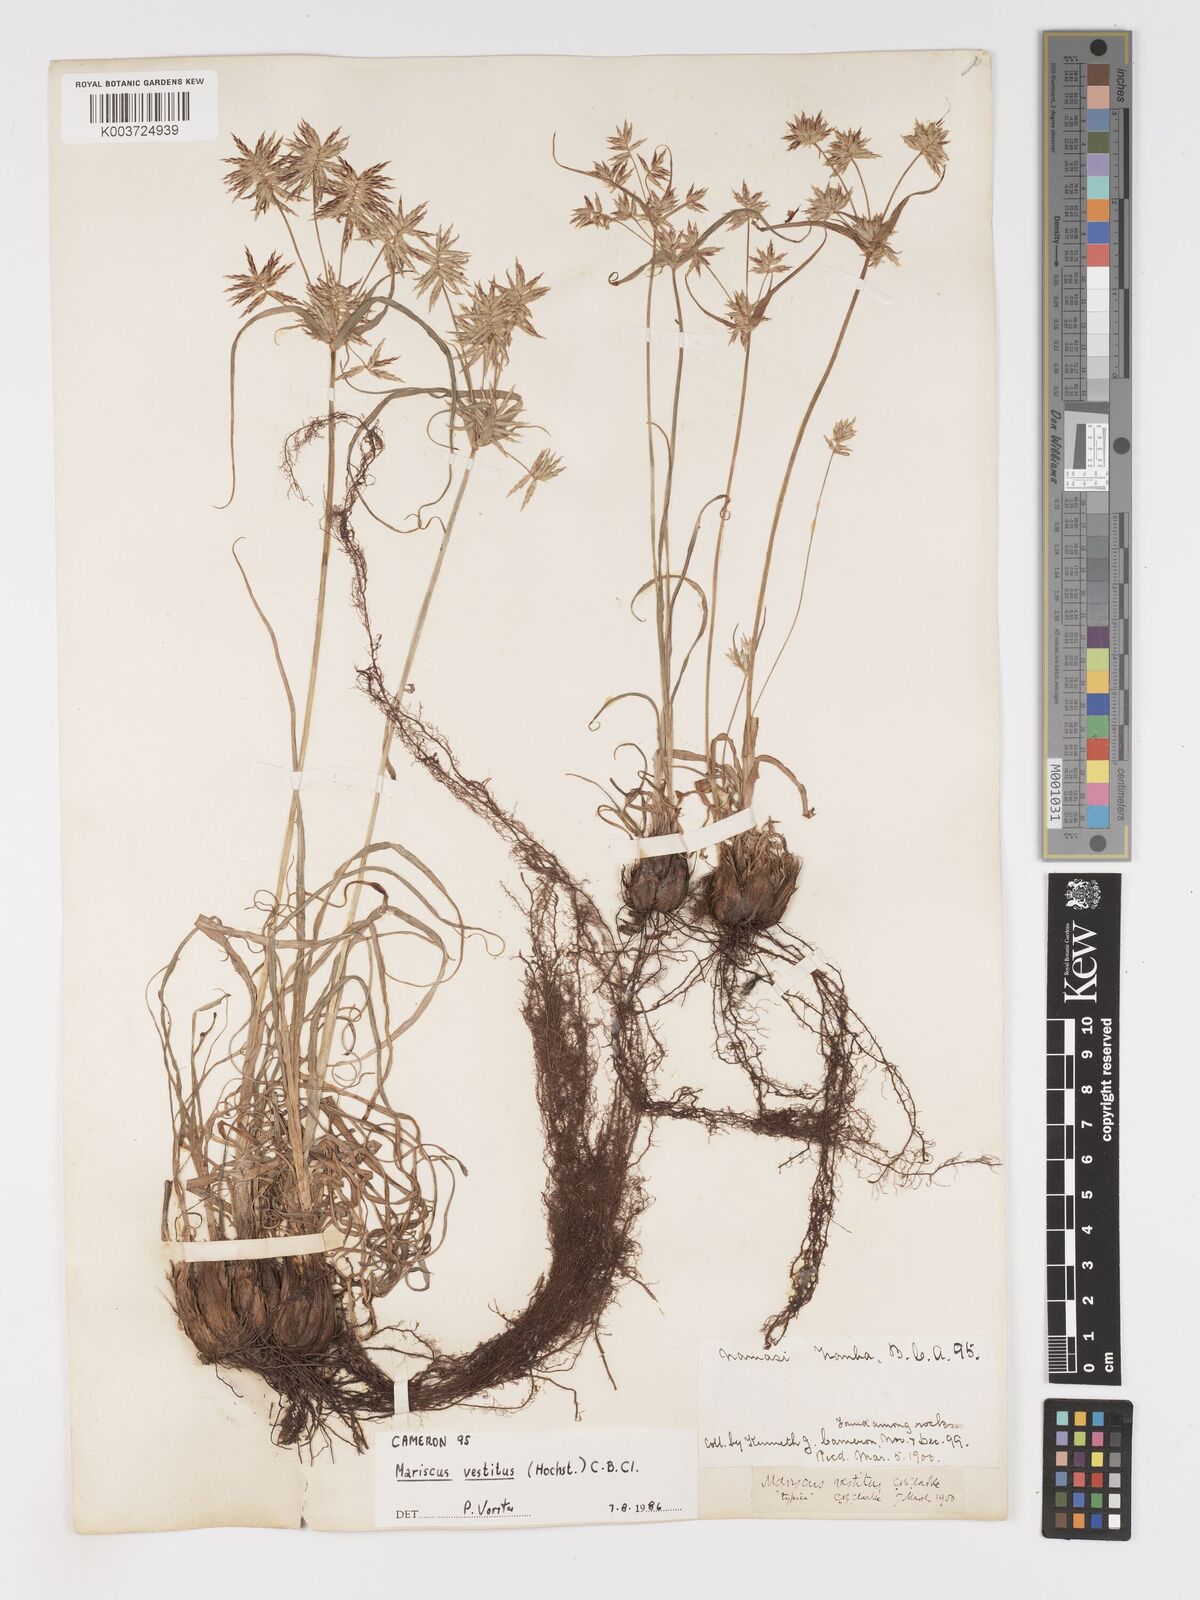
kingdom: Plantae
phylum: Tracheophyta
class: Liliopsida
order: Poales
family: Cyperaceae
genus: Cyperus
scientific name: Cyperus vestitus
